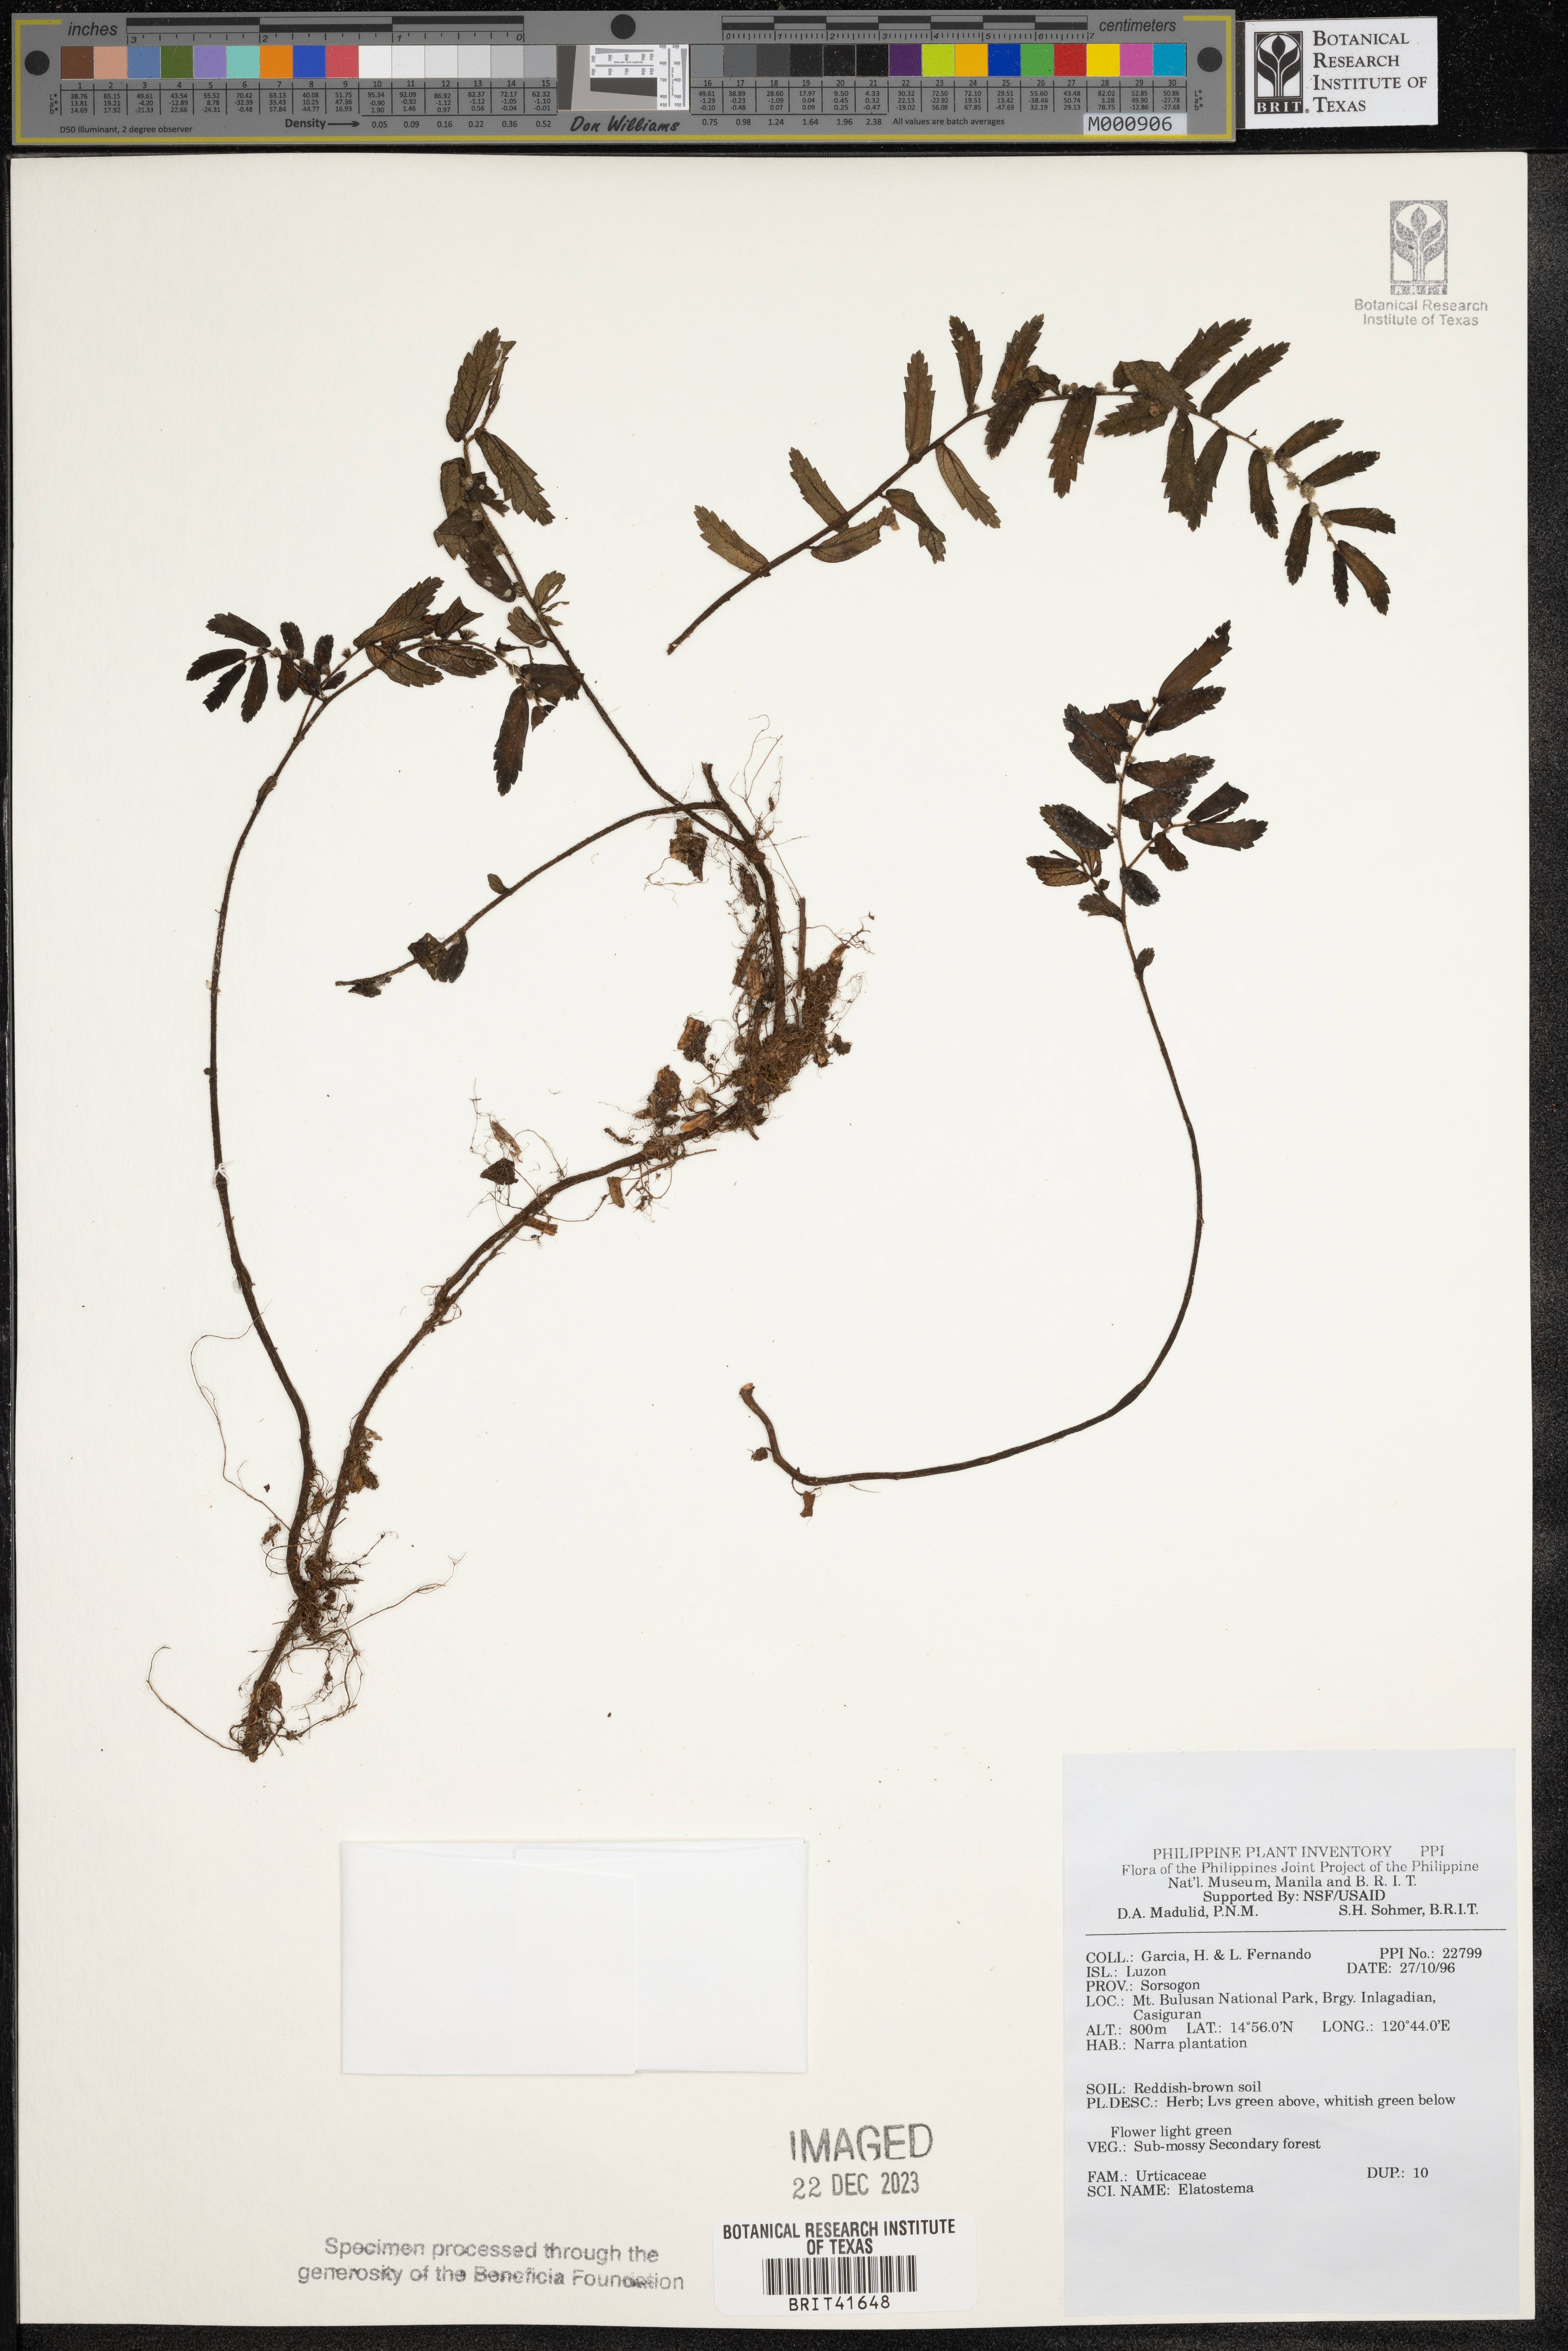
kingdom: Plantae
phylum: Tracheophyta
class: Magnoliopsida
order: Rosales
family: Urticaceae
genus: Elatostema
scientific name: Elatostema
